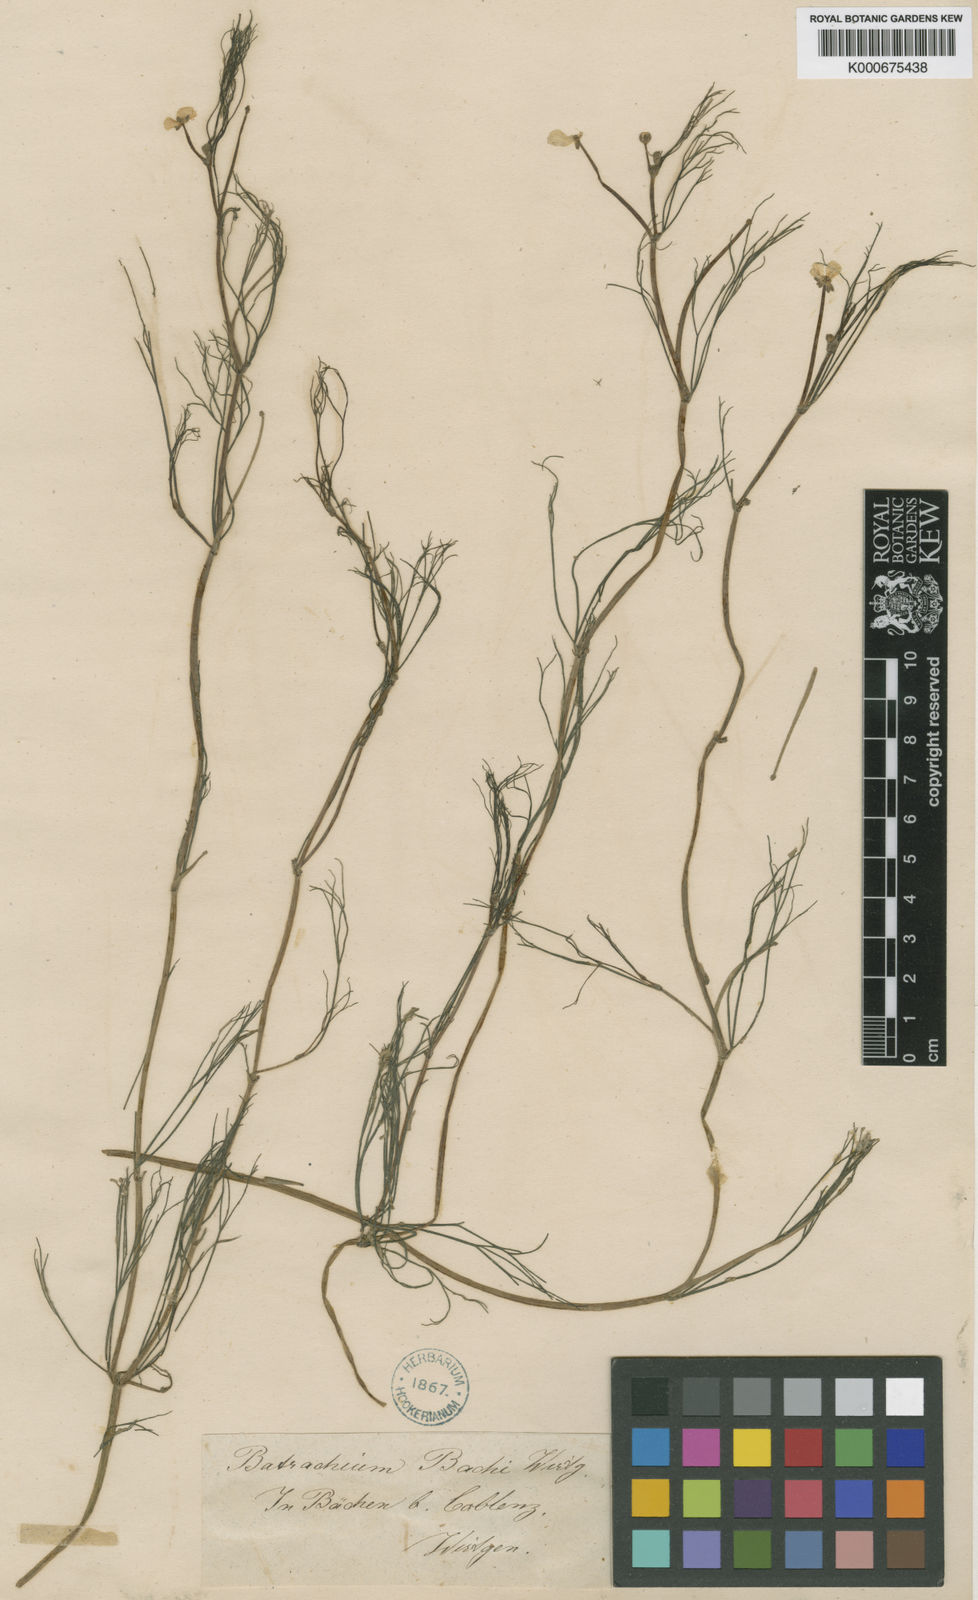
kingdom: Plantae
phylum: Tracheophyta
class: Magnoliopsida
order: Ranunculales
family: Ranunculaceae
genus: Ranunculus
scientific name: Ranunculus fluitans
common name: River water-crowfoot
